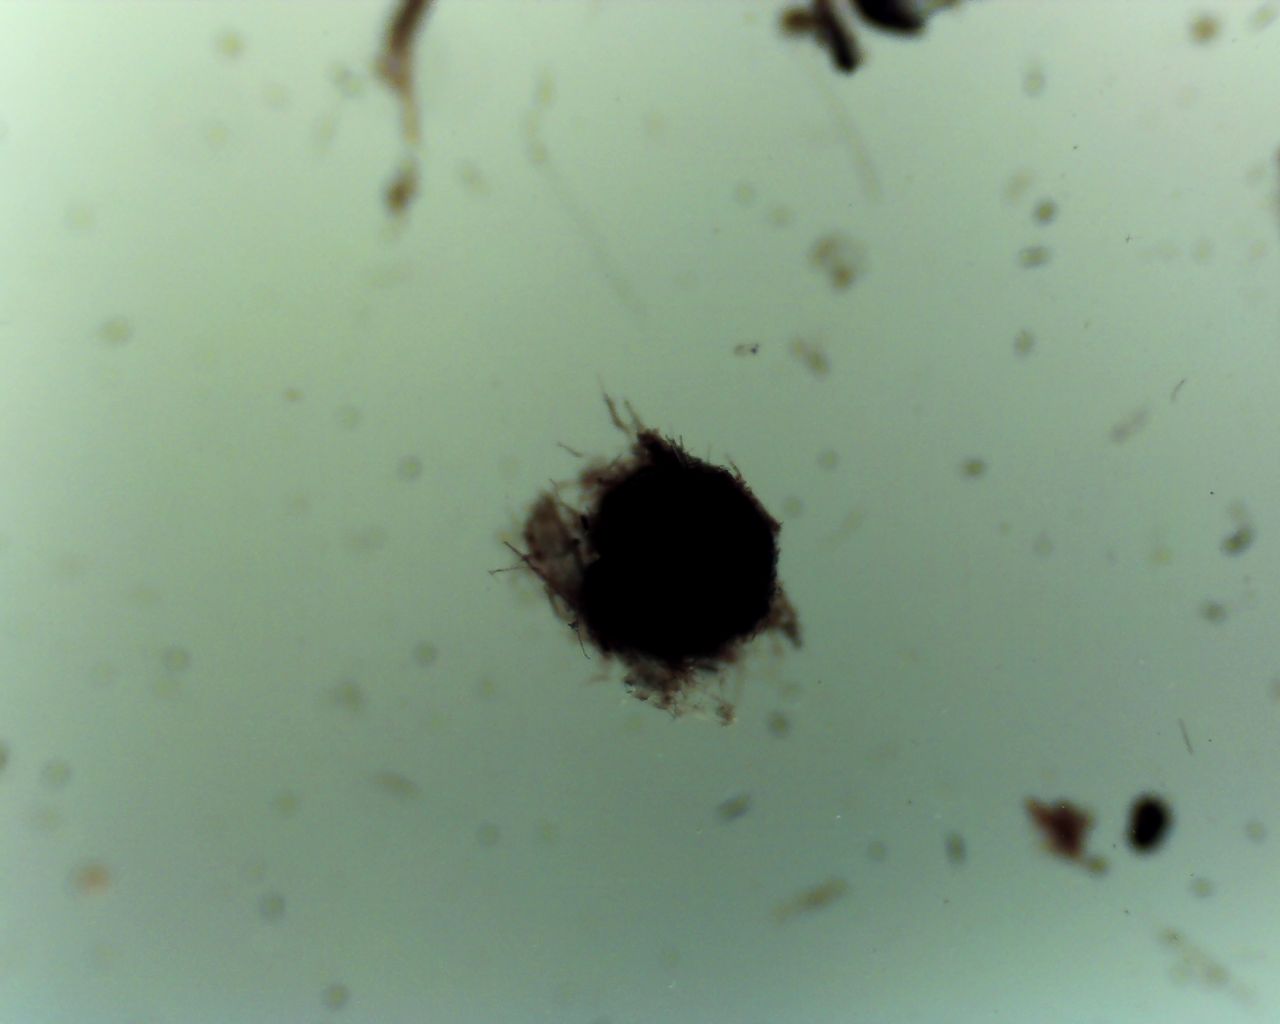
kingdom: Fungi
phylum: Ascomycota
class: Dothideomycetes
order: Pleosporales
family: Sporormiaceae
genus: Sporormiella
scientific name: Sporormiella
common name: knækspore
